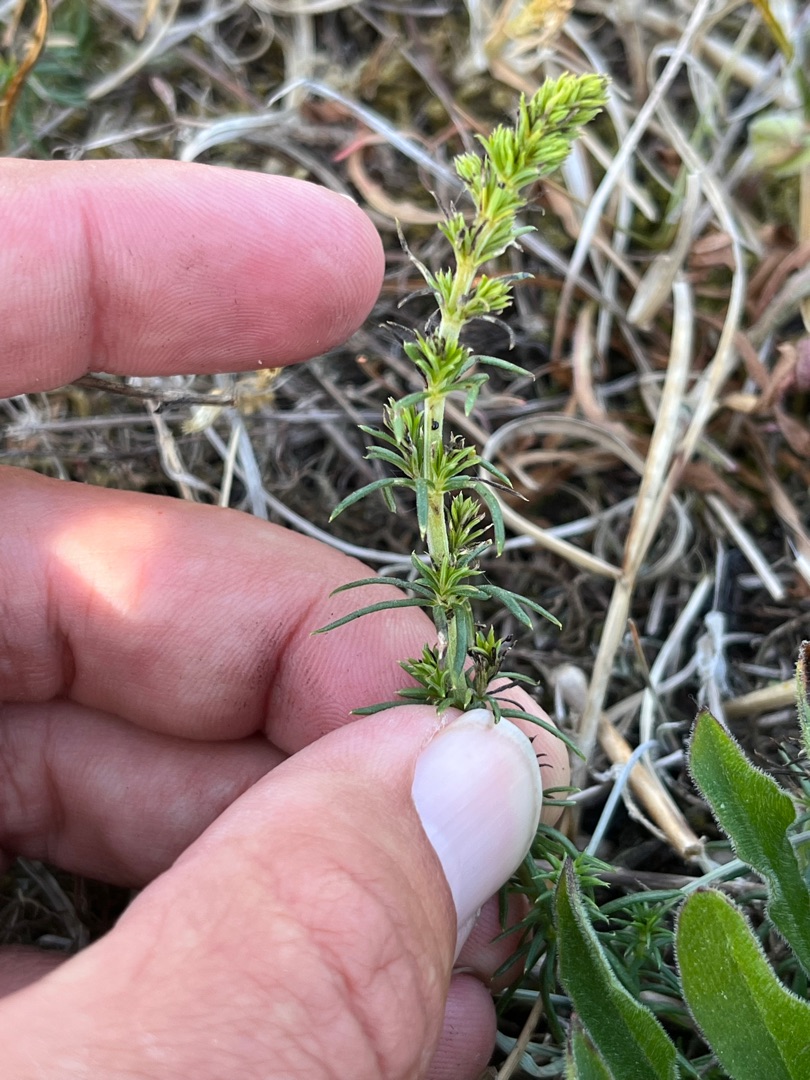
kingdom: Plantae
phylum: Tracheophyta
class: Magnoliopsida
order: Gentianales
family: Rubiaceae
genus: Galium
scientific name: Galium verum
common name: Gul snerre
